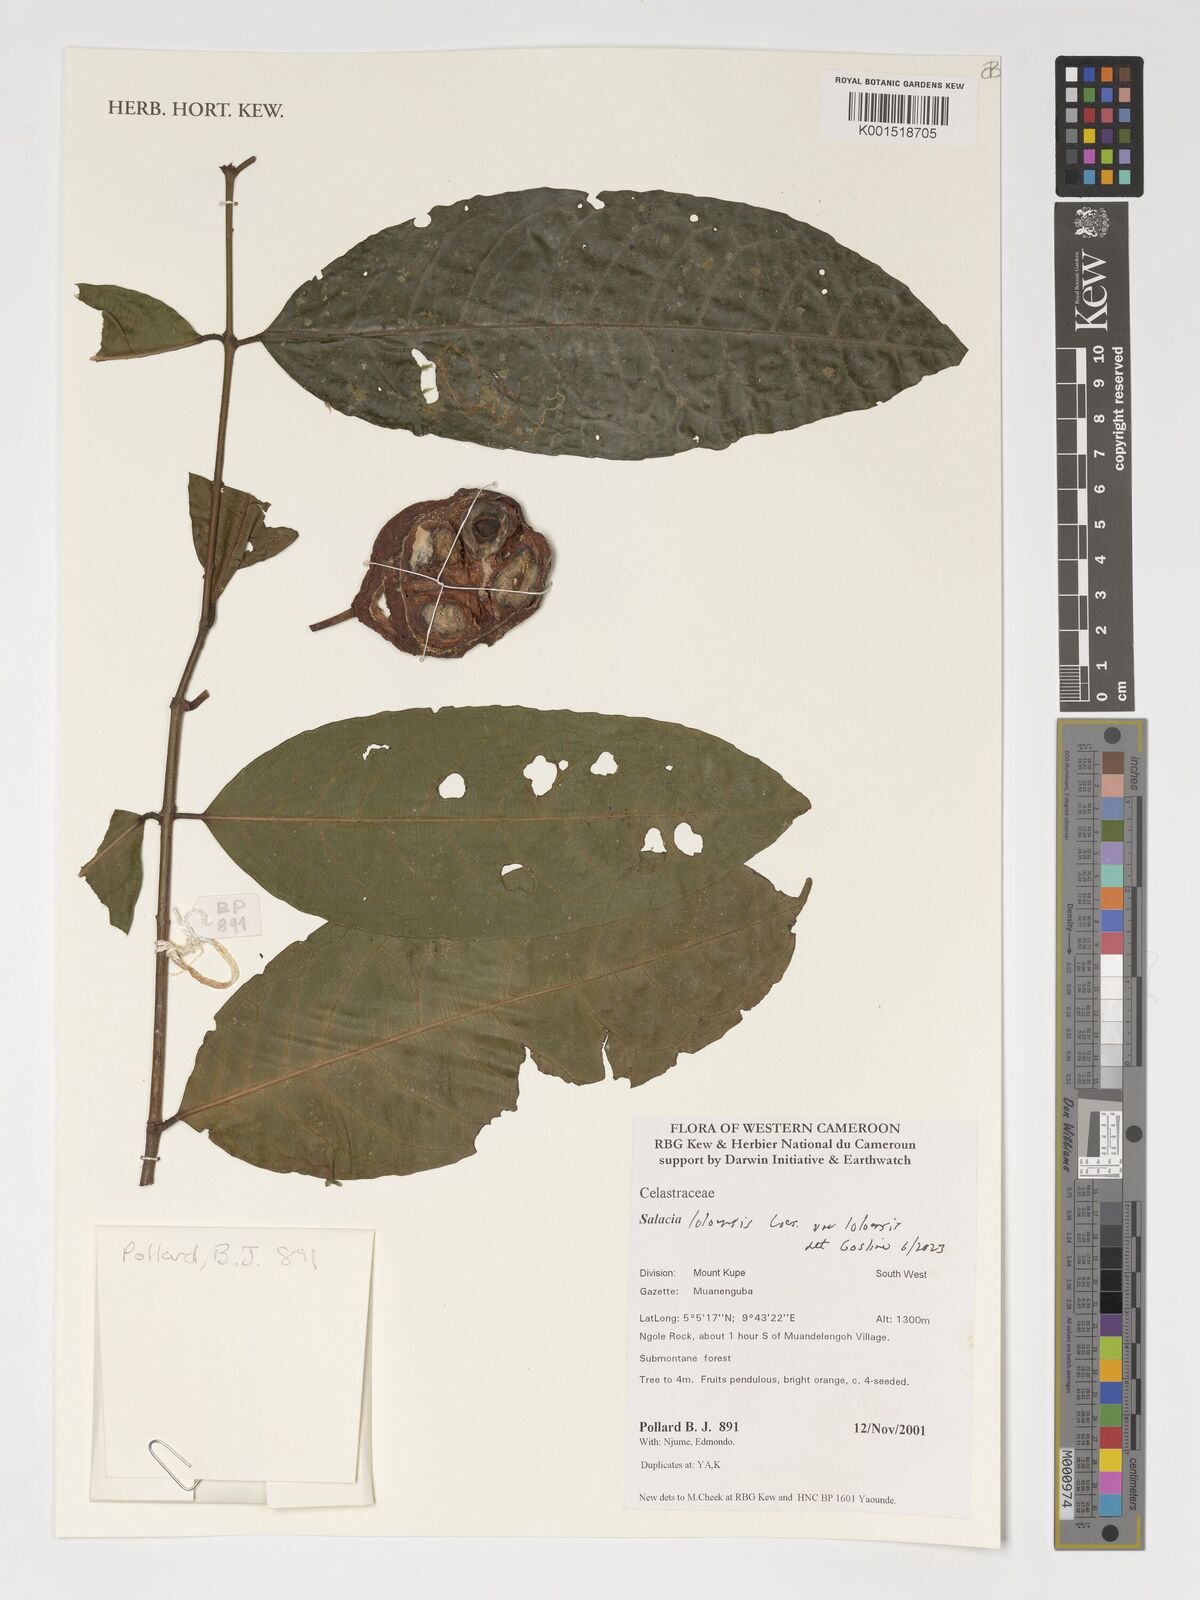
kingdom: Plantae
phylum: Tracheophyta
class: Magnoliopsida
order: Celastrales
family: Celastraceae
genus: Salacia
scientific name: Salacia loloensis
